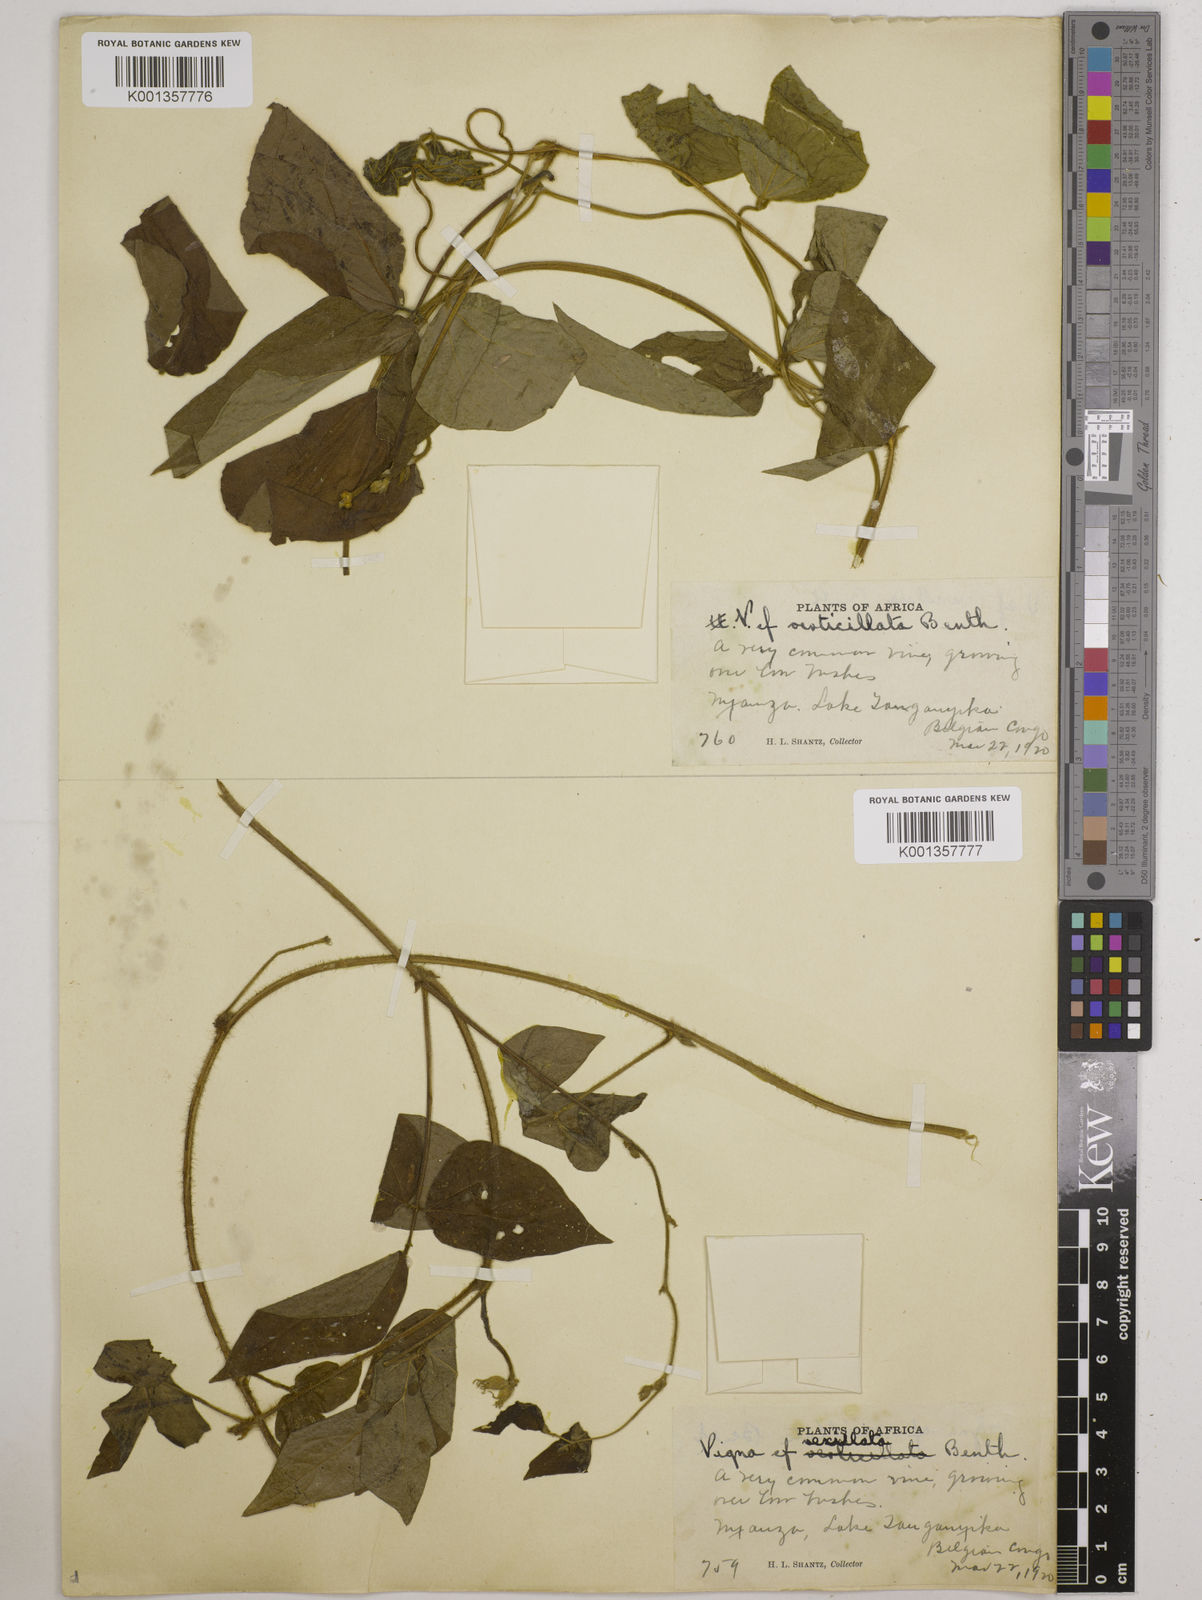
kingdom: Plantae
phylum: Tracheophyta
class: Magnoliopsida
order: Fabales
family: Fabaceae
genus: Vigna
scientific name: Vigna
